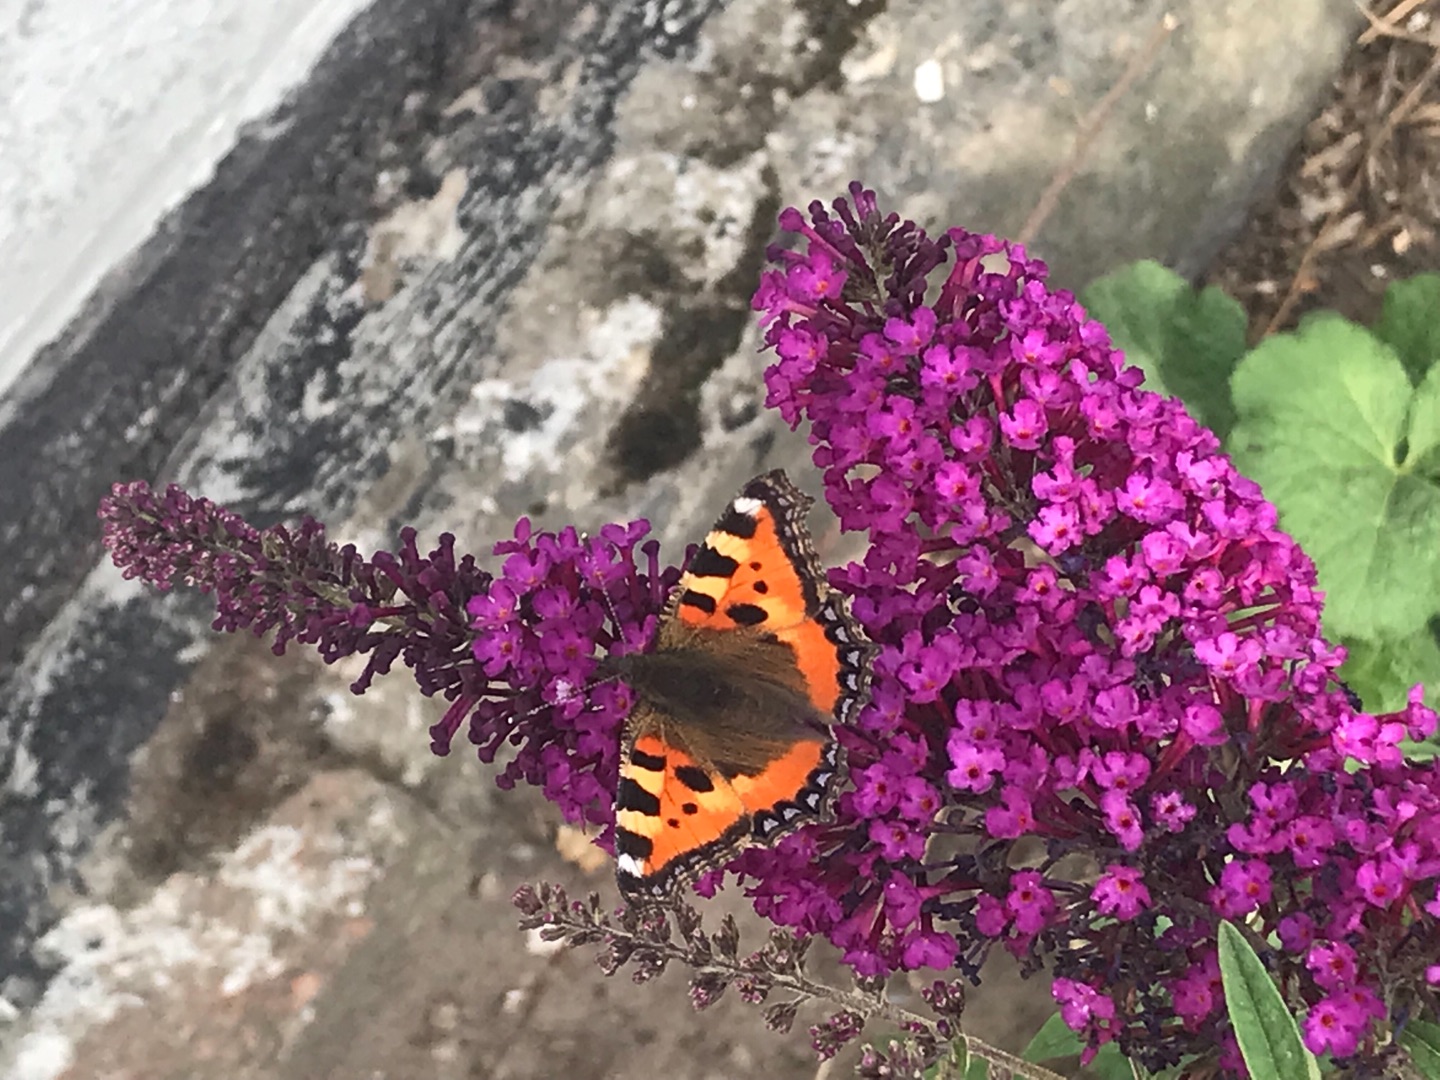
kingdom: Animalia
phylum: Arthropoda
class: Insecta
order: Lepidoptera
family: Nymphalidae
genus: Aglais
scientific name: Aglais urticae
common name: Nældens takvinge
